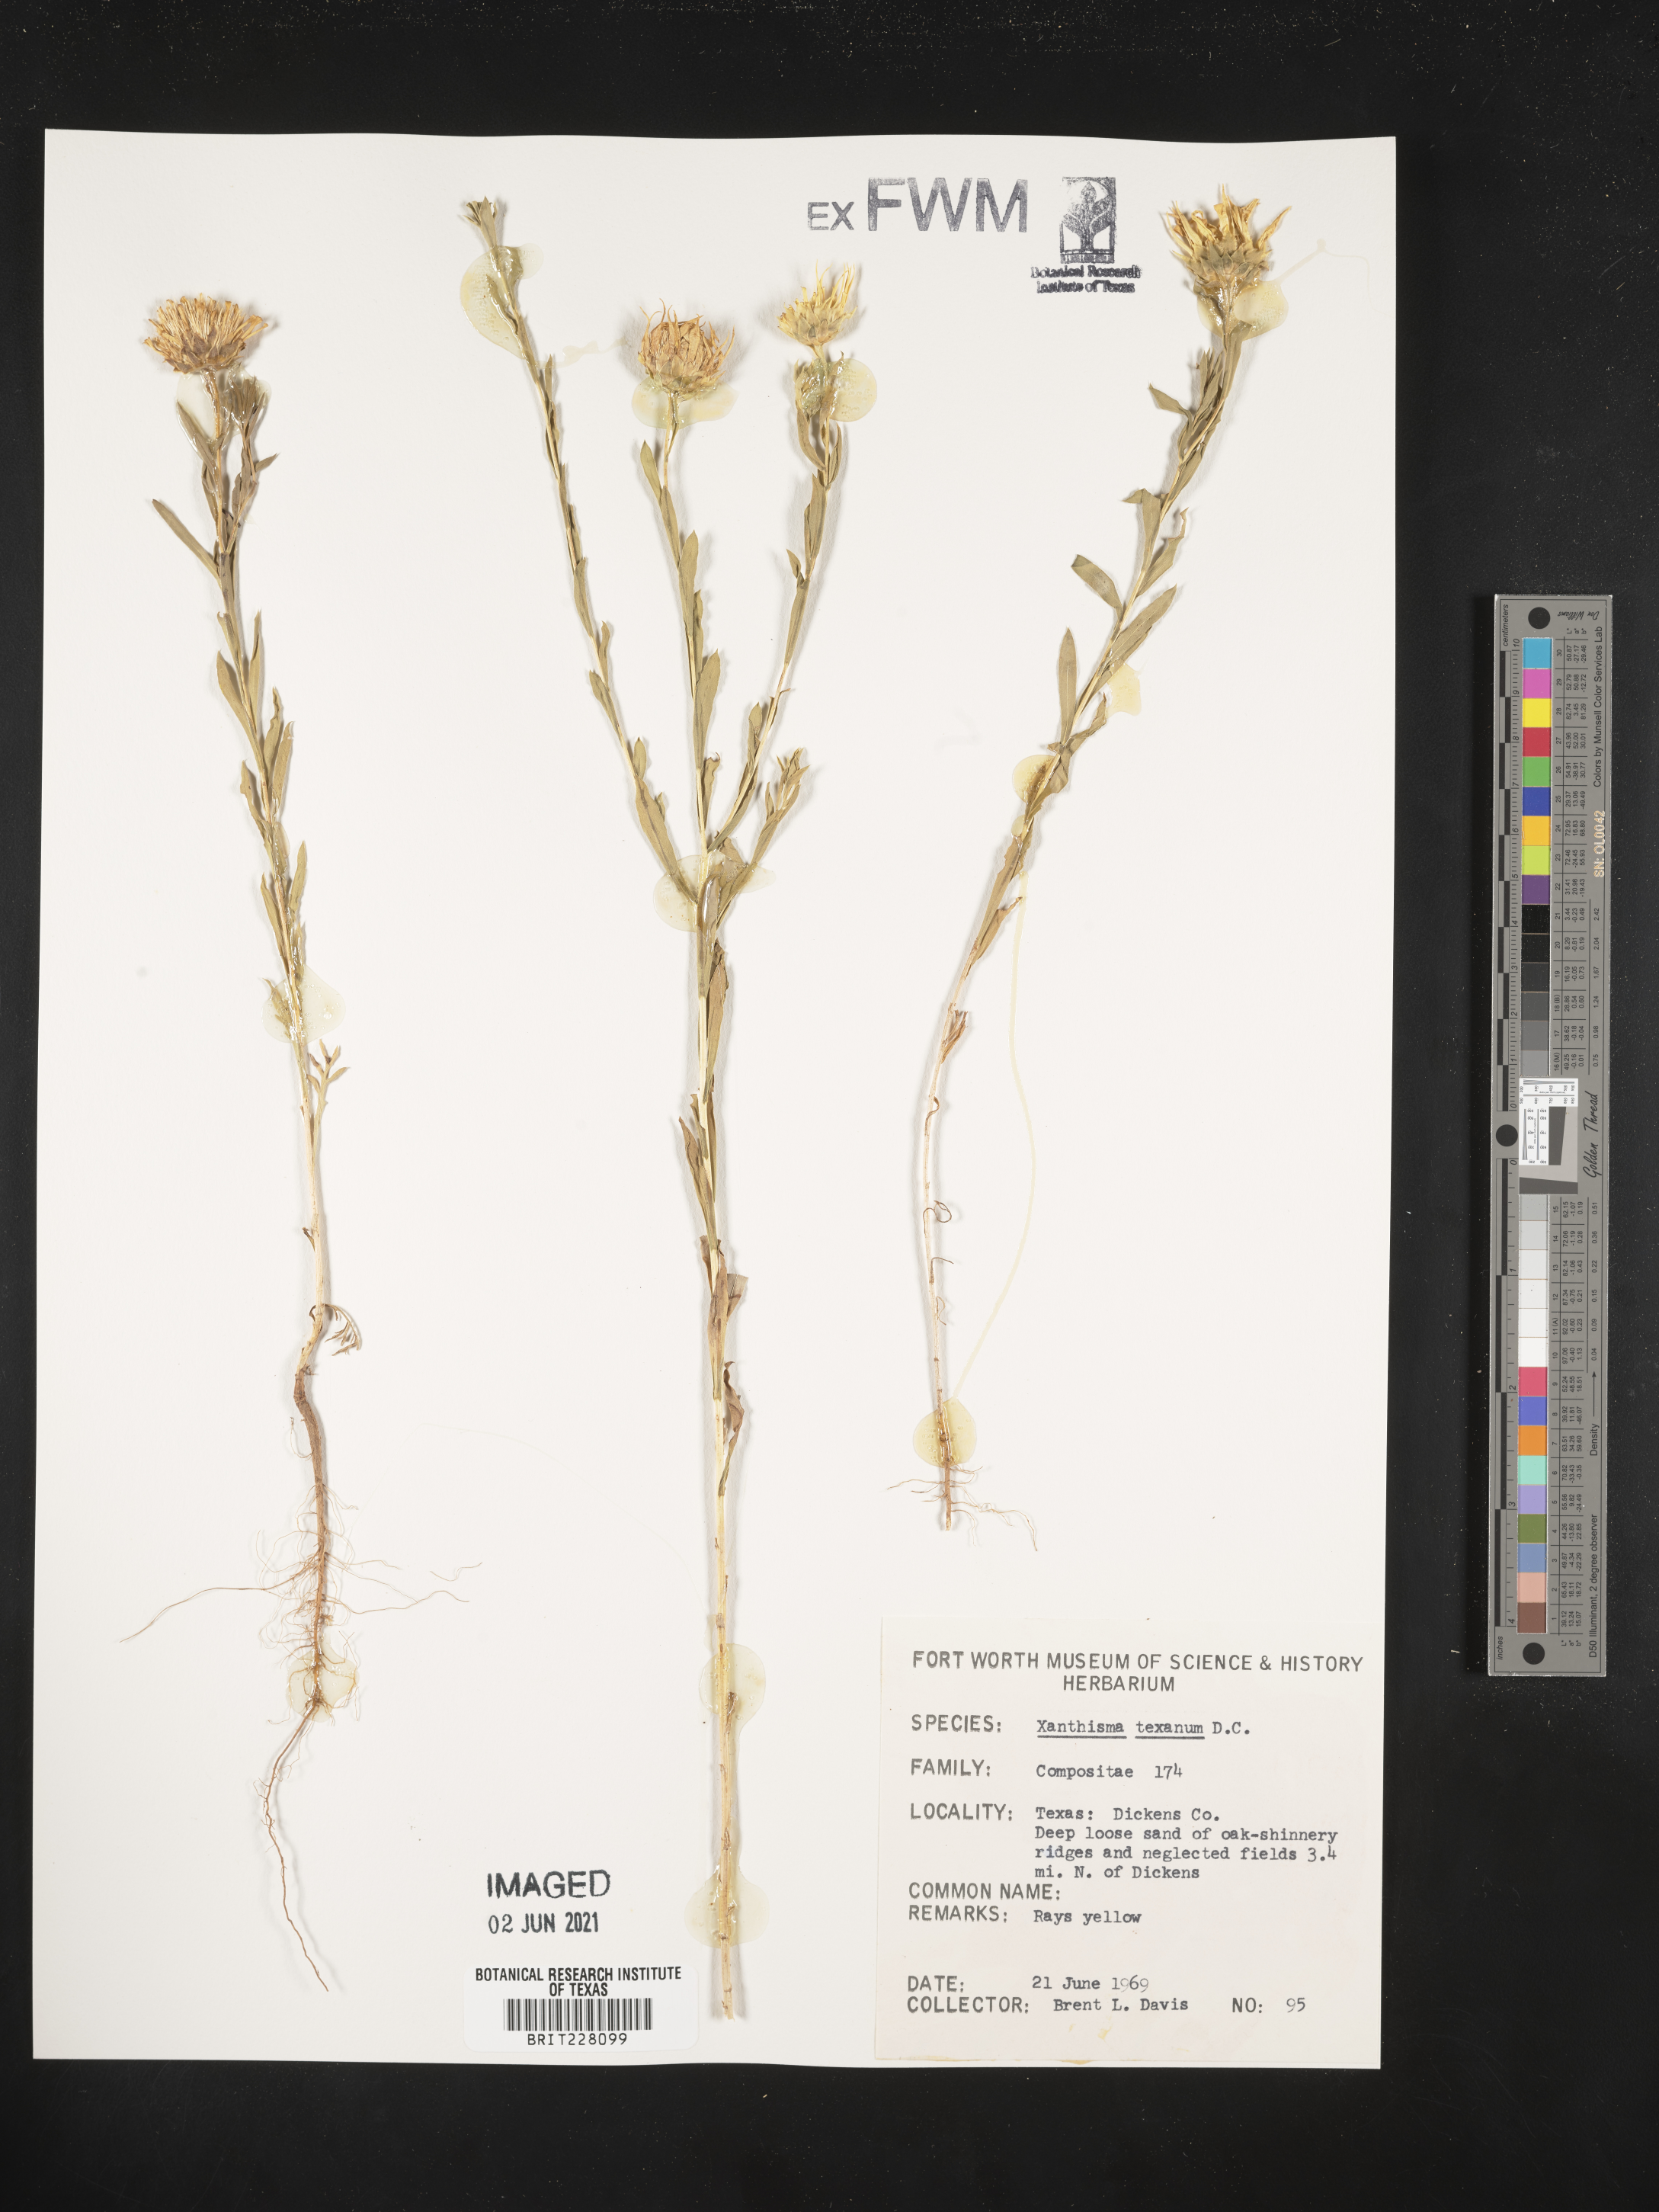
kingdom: Plantae
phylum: Tracheophyta
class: Magnoliopsida
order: Asterales
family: Asteraceae
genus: Xanthisma
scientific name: Xanthisma texanum
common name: Texas sleepy daisy
